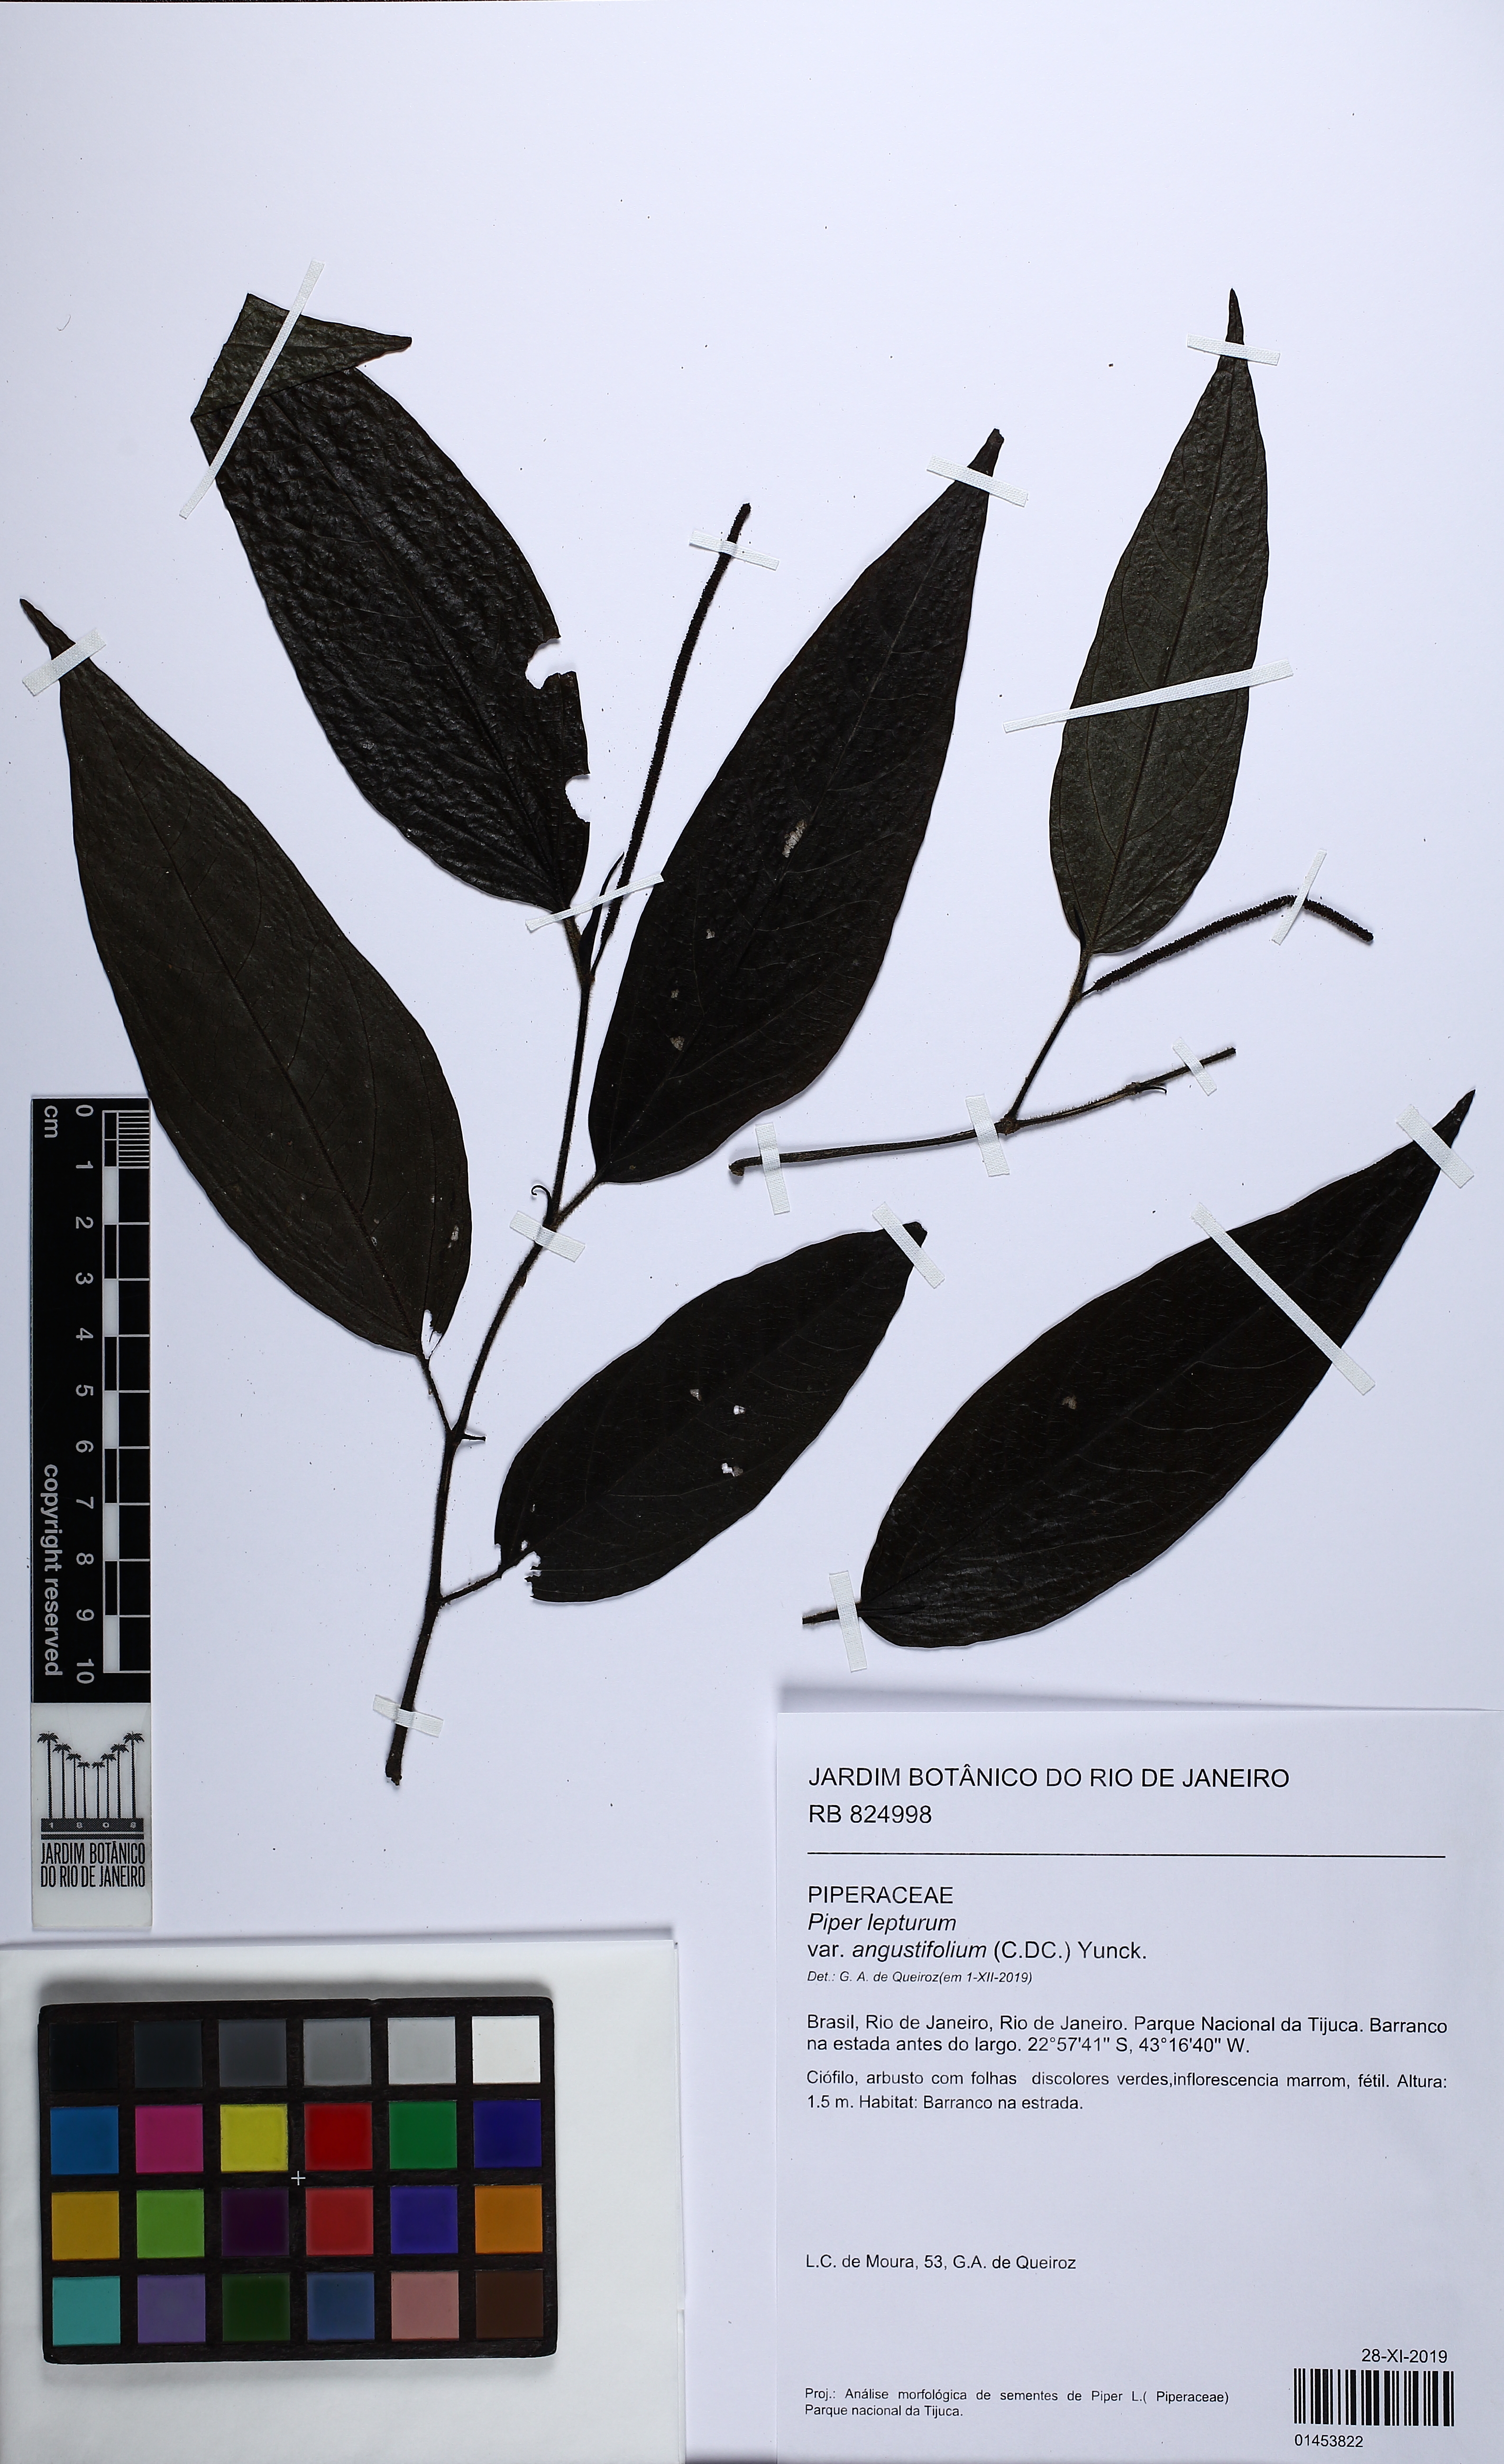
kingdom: Plantae
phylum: Tracheophyta
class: Magnoliopsida
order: Piperales
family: Piperaceae
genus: Piper
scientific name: Piper lepturum
